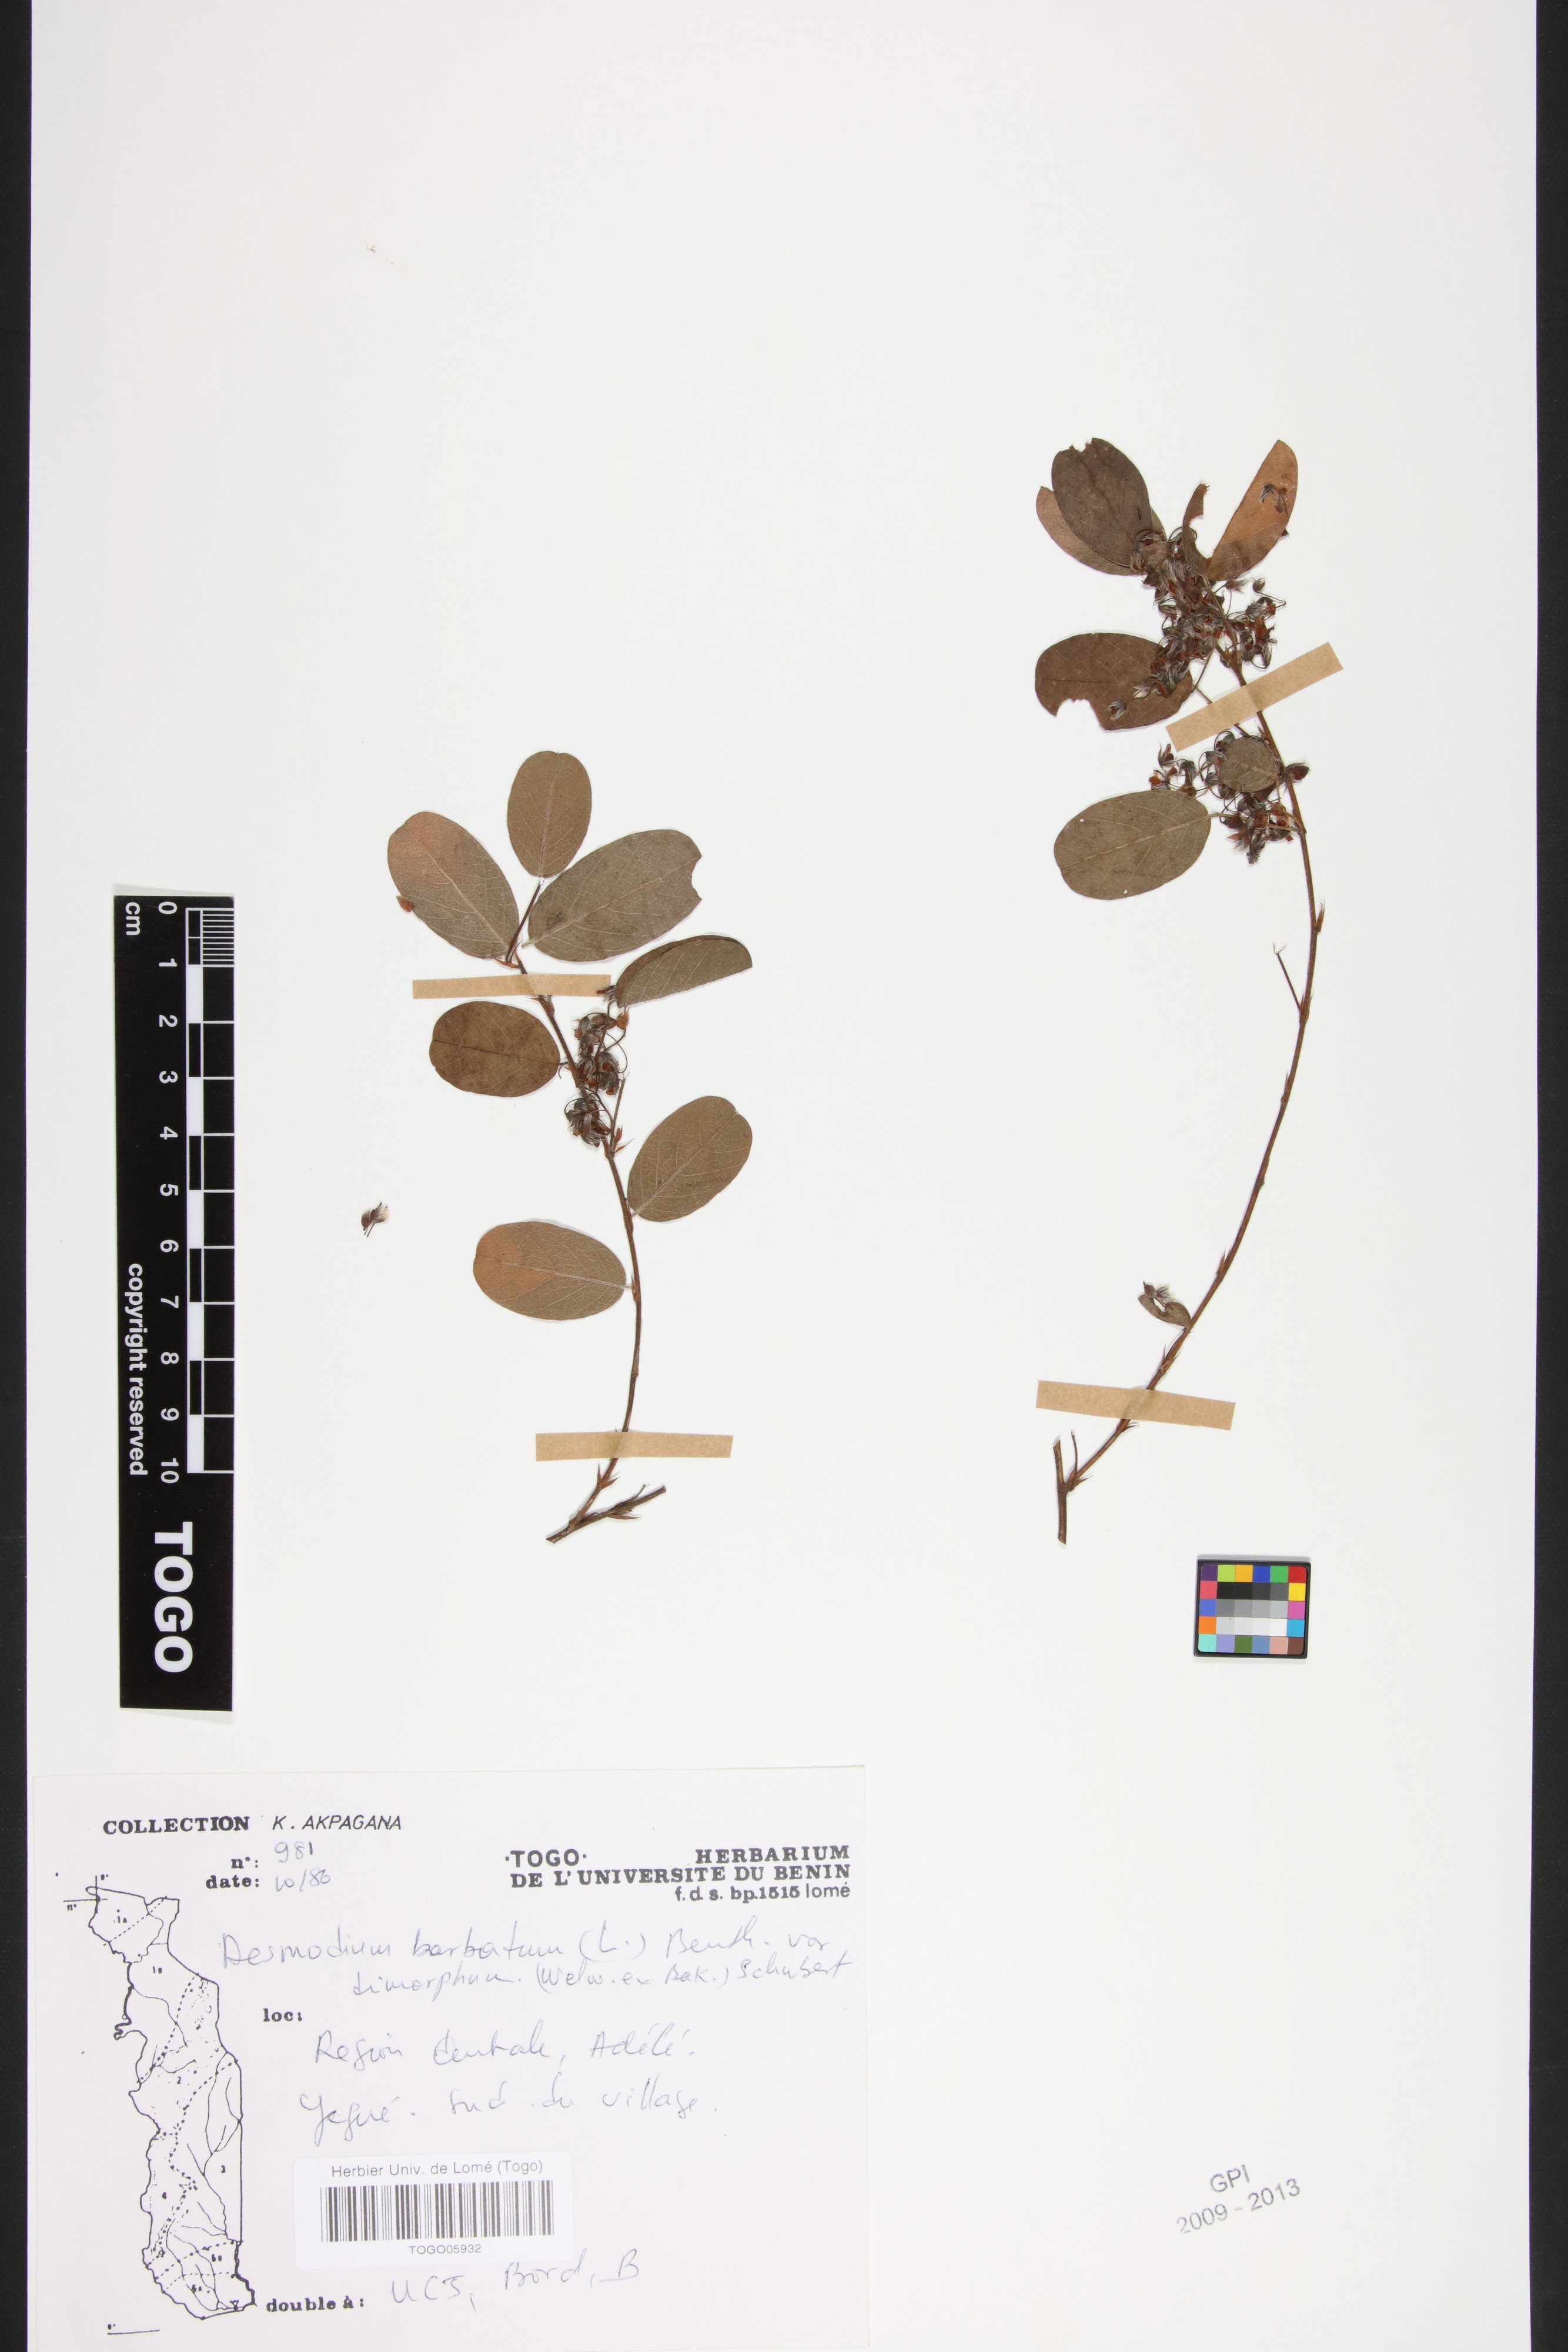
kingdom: Plantae
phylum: Tracheophyta
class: Magnoliopsida
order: Fabales
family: Fabaceae
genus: Grona
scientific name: Grona adscendens
